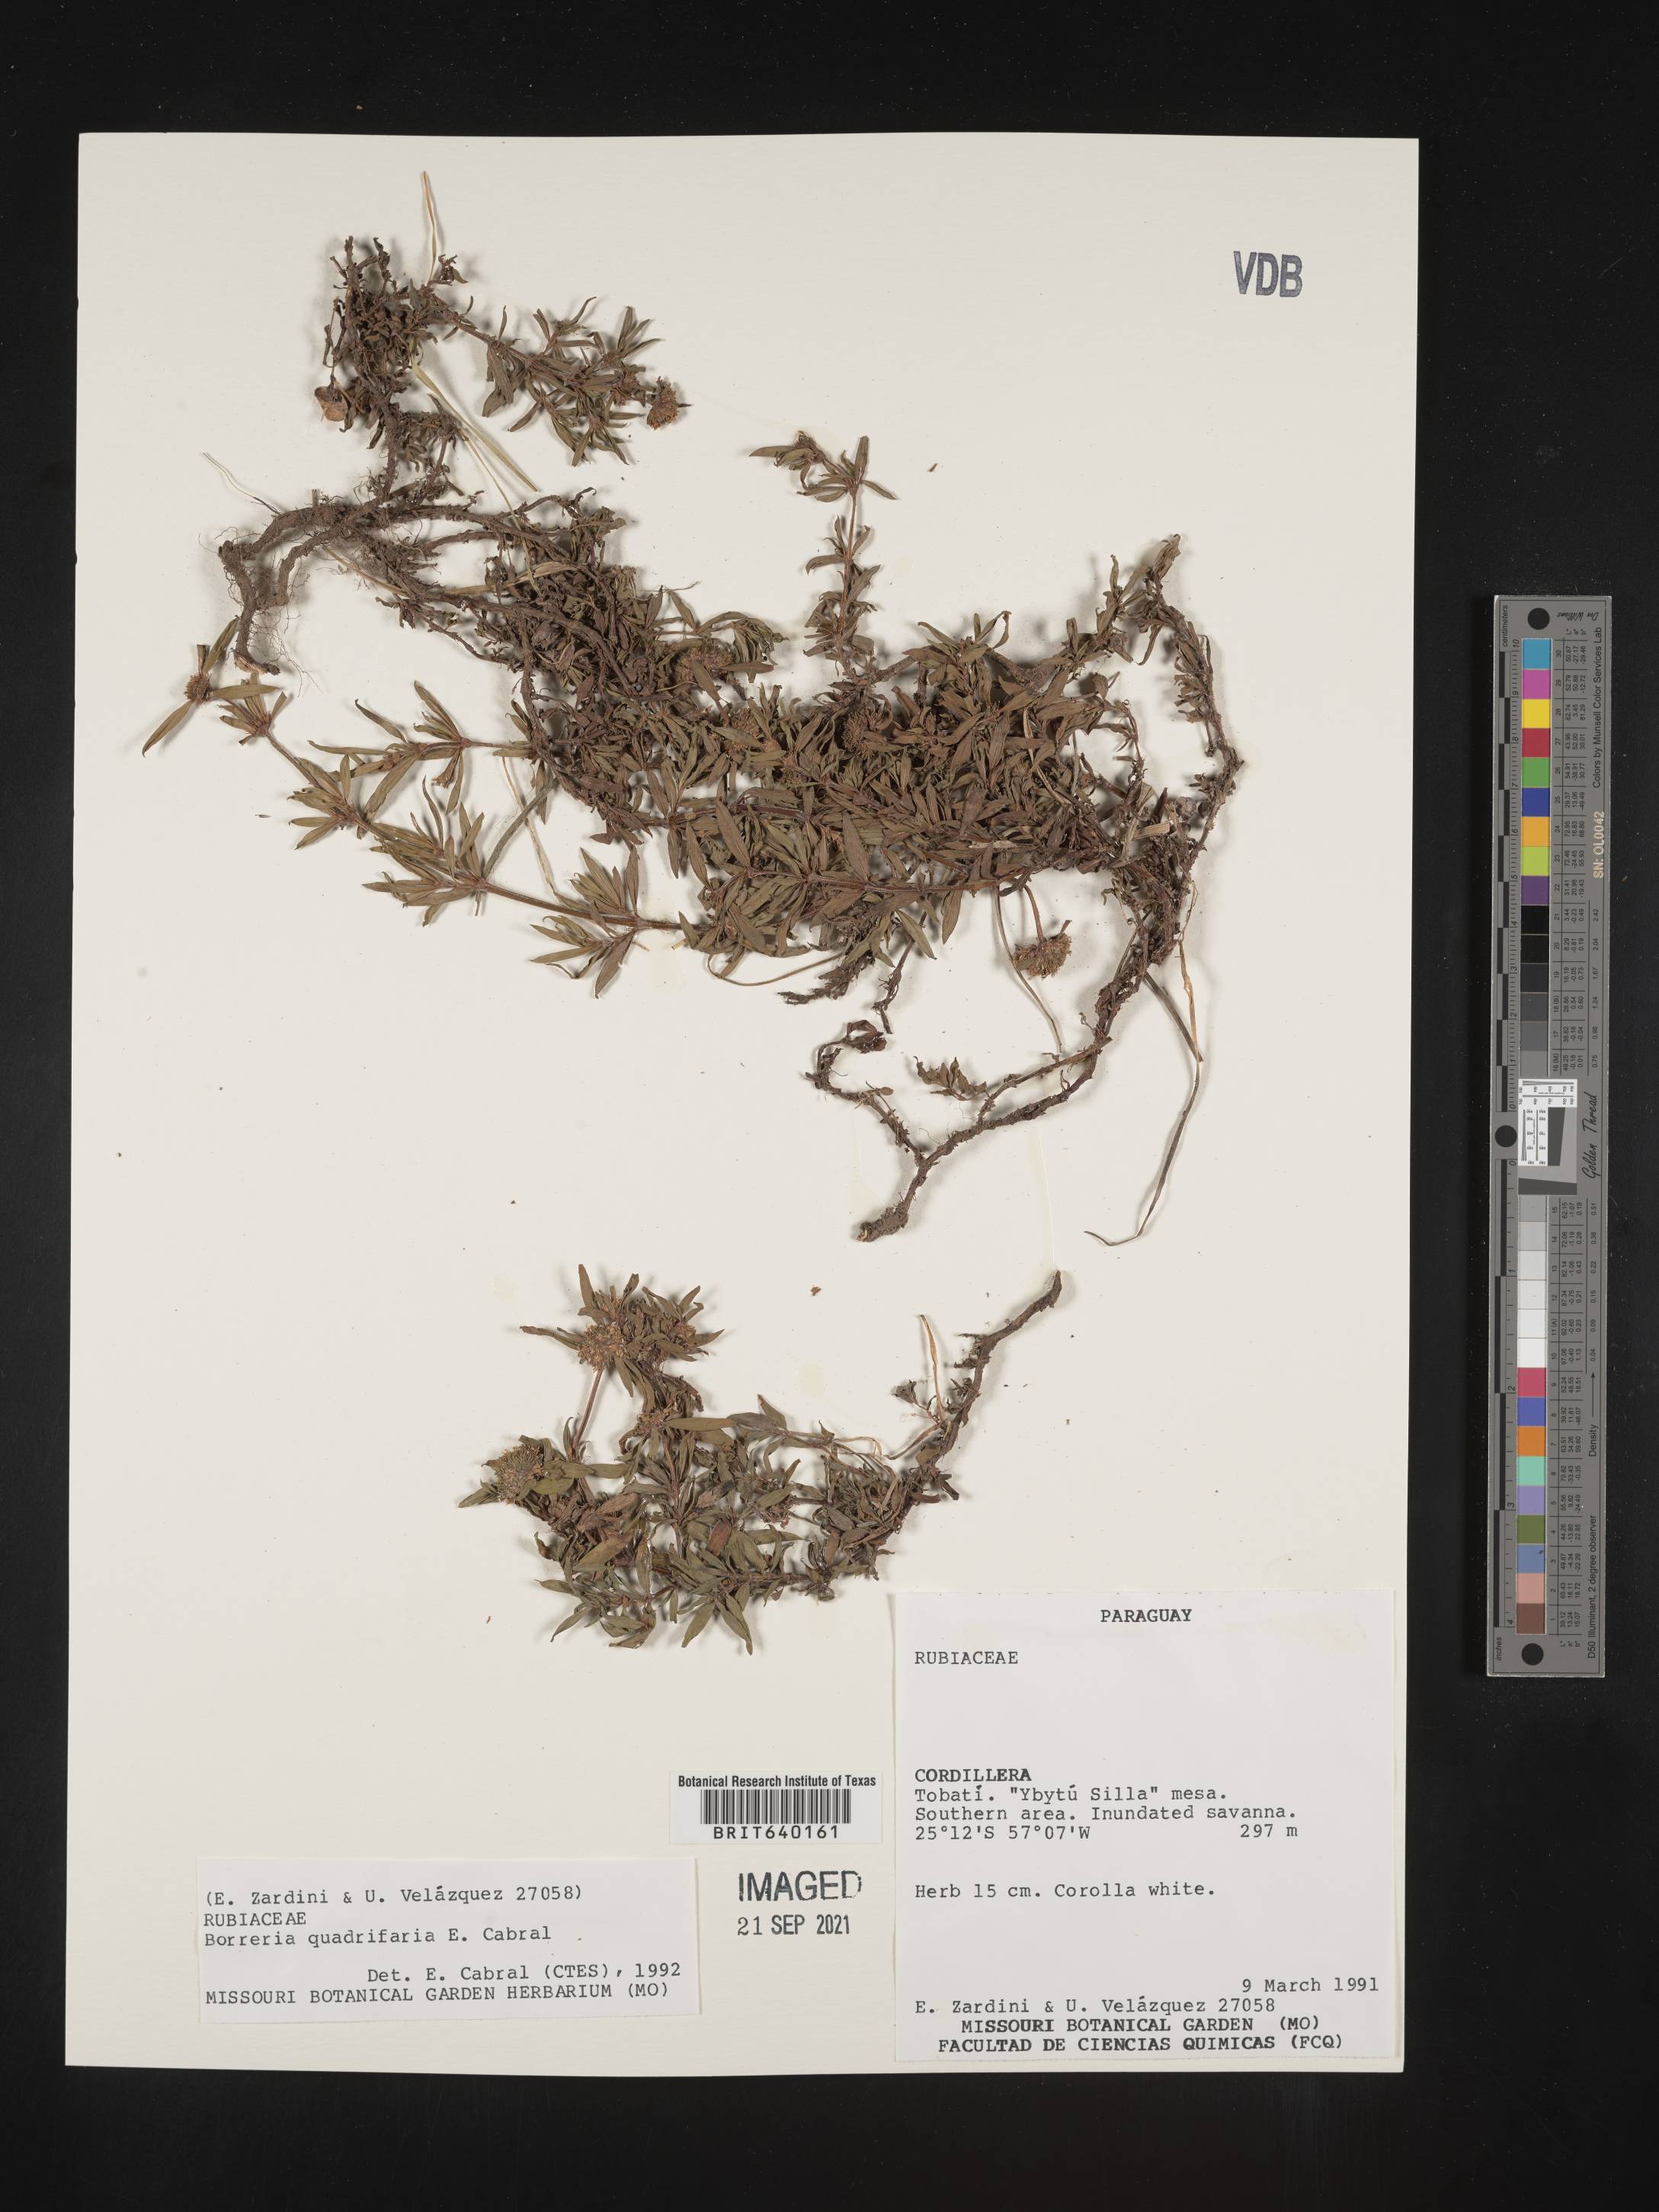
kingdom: Plantae
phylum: Tracheophyta
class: Magnoliopsida
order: Gentianales
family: Rubiaceae
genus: Spermacoce
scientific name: Spermacoce
